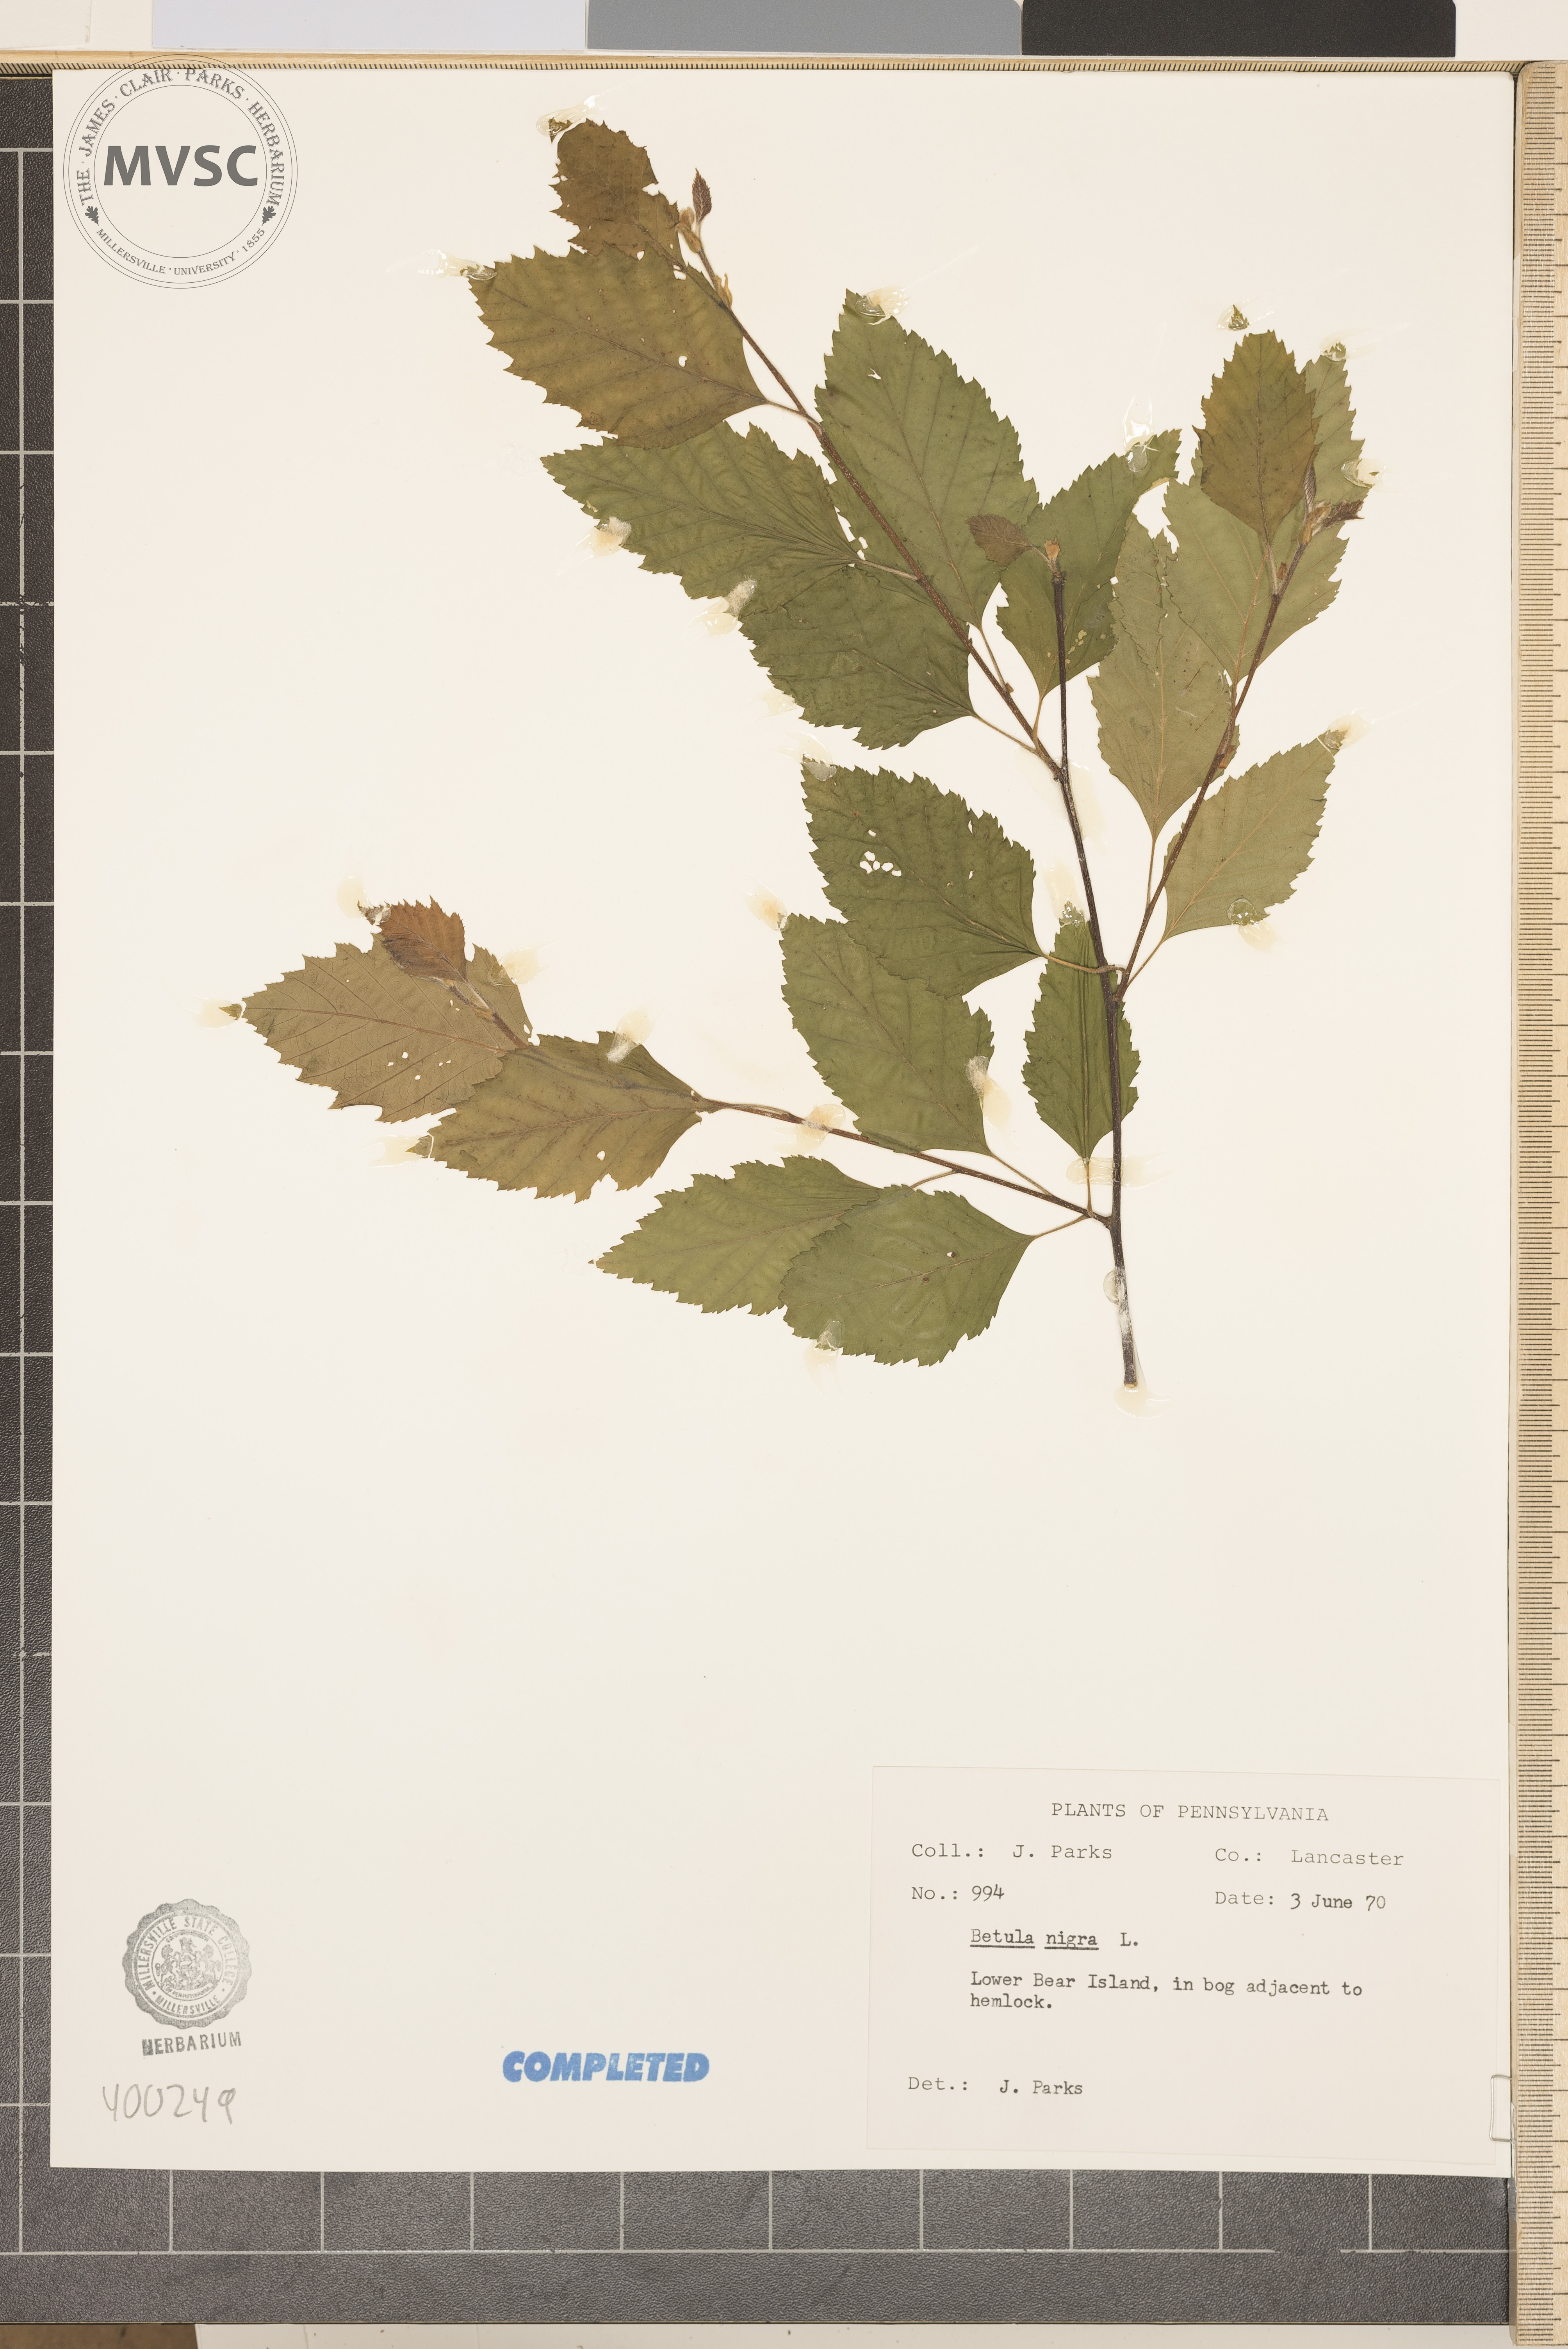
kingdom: Plantae
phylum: Tracheophyta
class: Magnoliopsida
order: Fagales
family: Betulaceae
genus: Betula
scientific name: Betula nigra
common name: river birch
